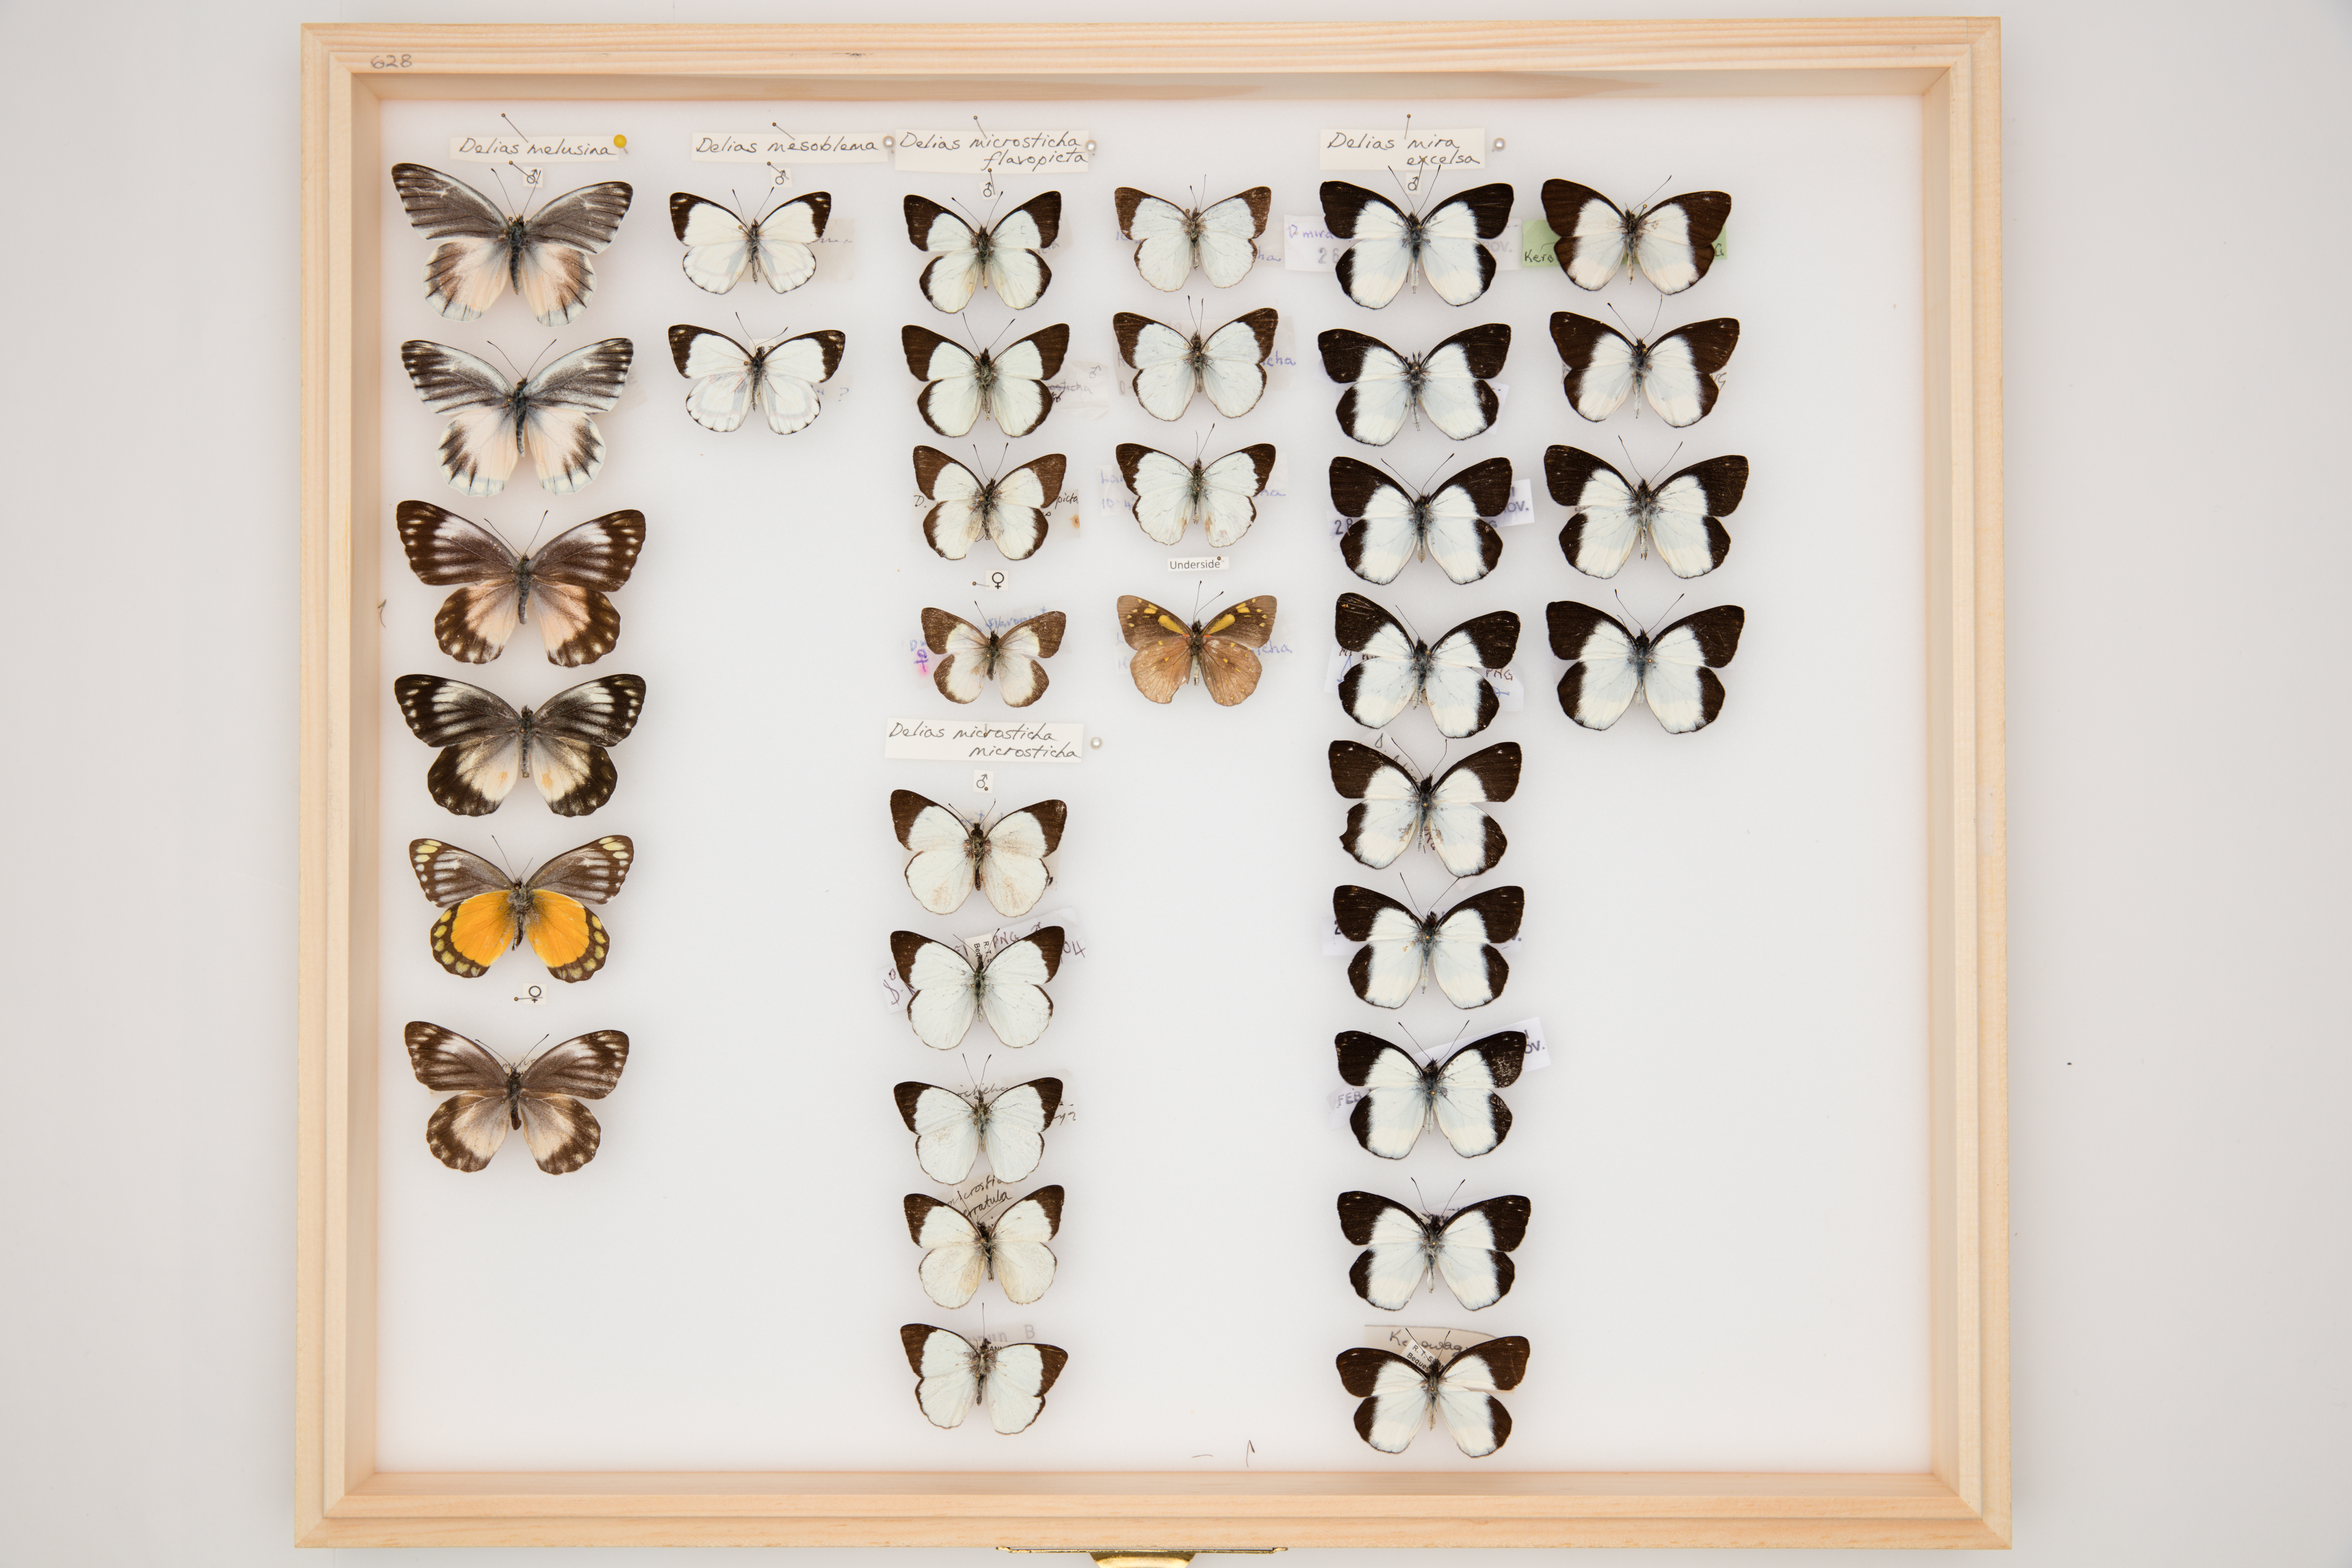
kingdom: Animalia
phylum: Arthropoda
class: Insecta
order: Lepidoptera
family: Pieridae
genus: Delias
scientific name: Delias microsticha
